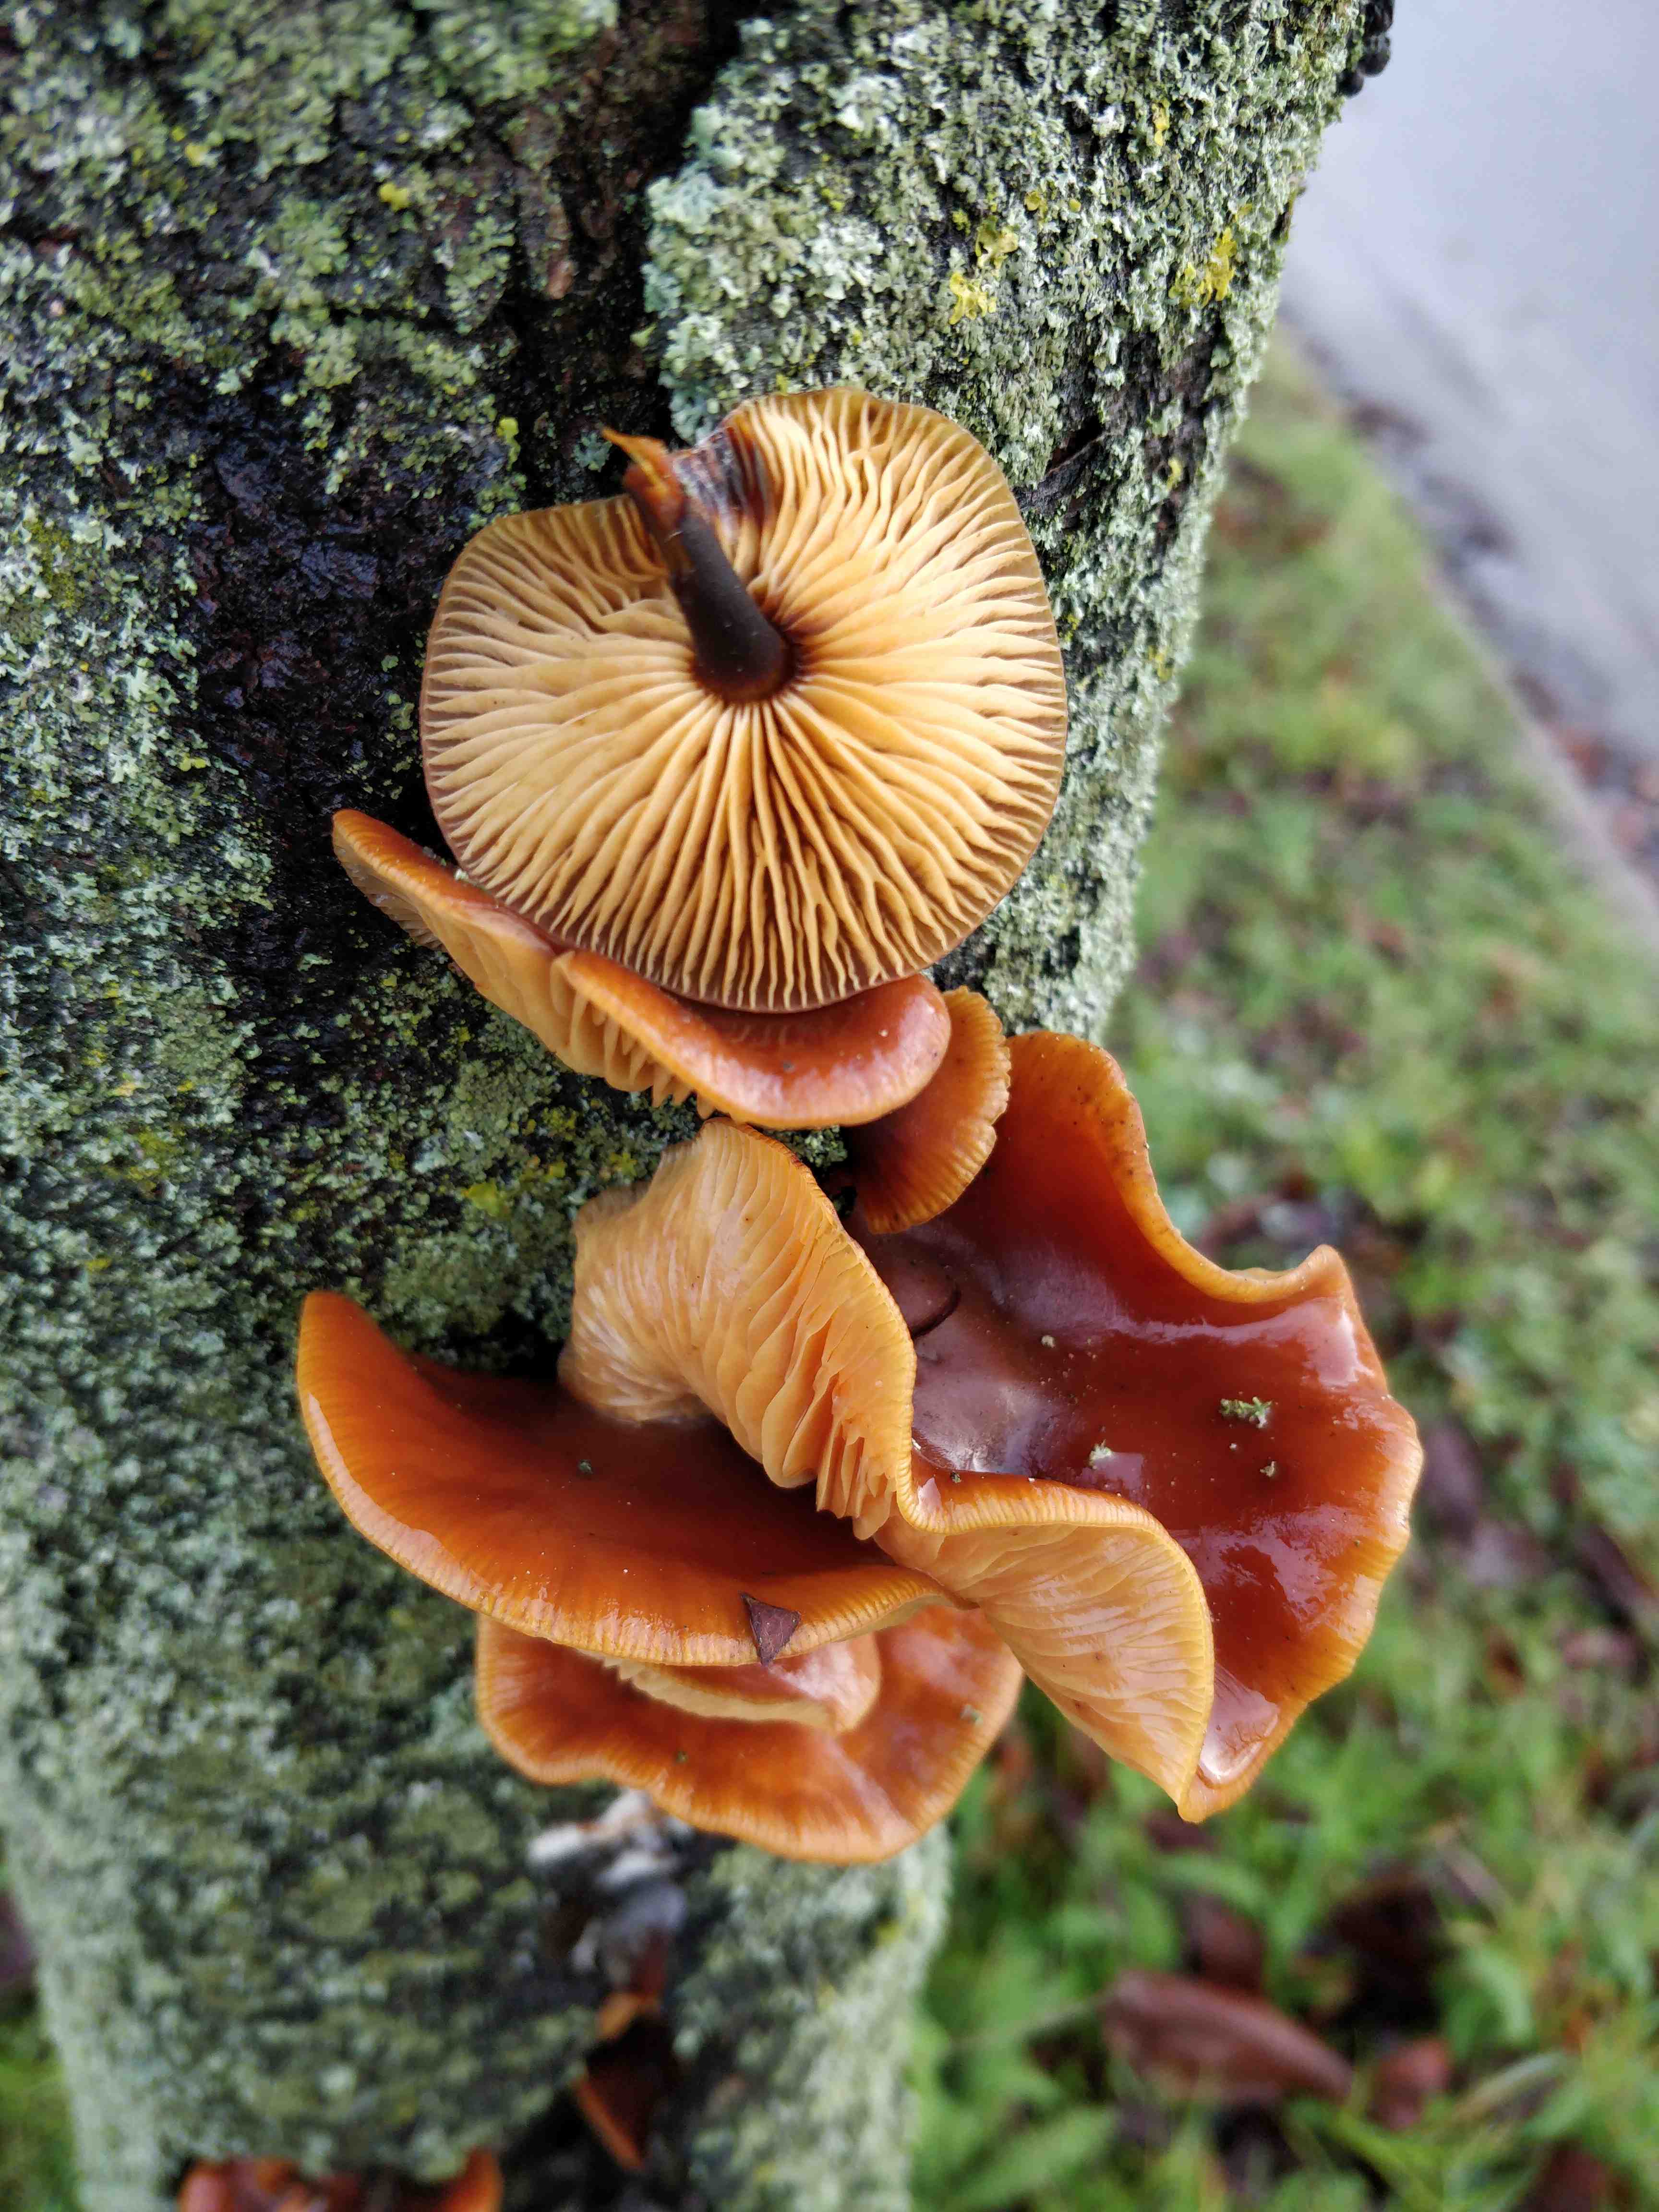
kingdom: Fungi
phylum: Basidiomycota
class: Agaricomycetes
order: Agaricales
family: Physalacriaceae
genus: Flammulina
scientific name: Flammulina velutipes
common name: gul fløjlsfod
